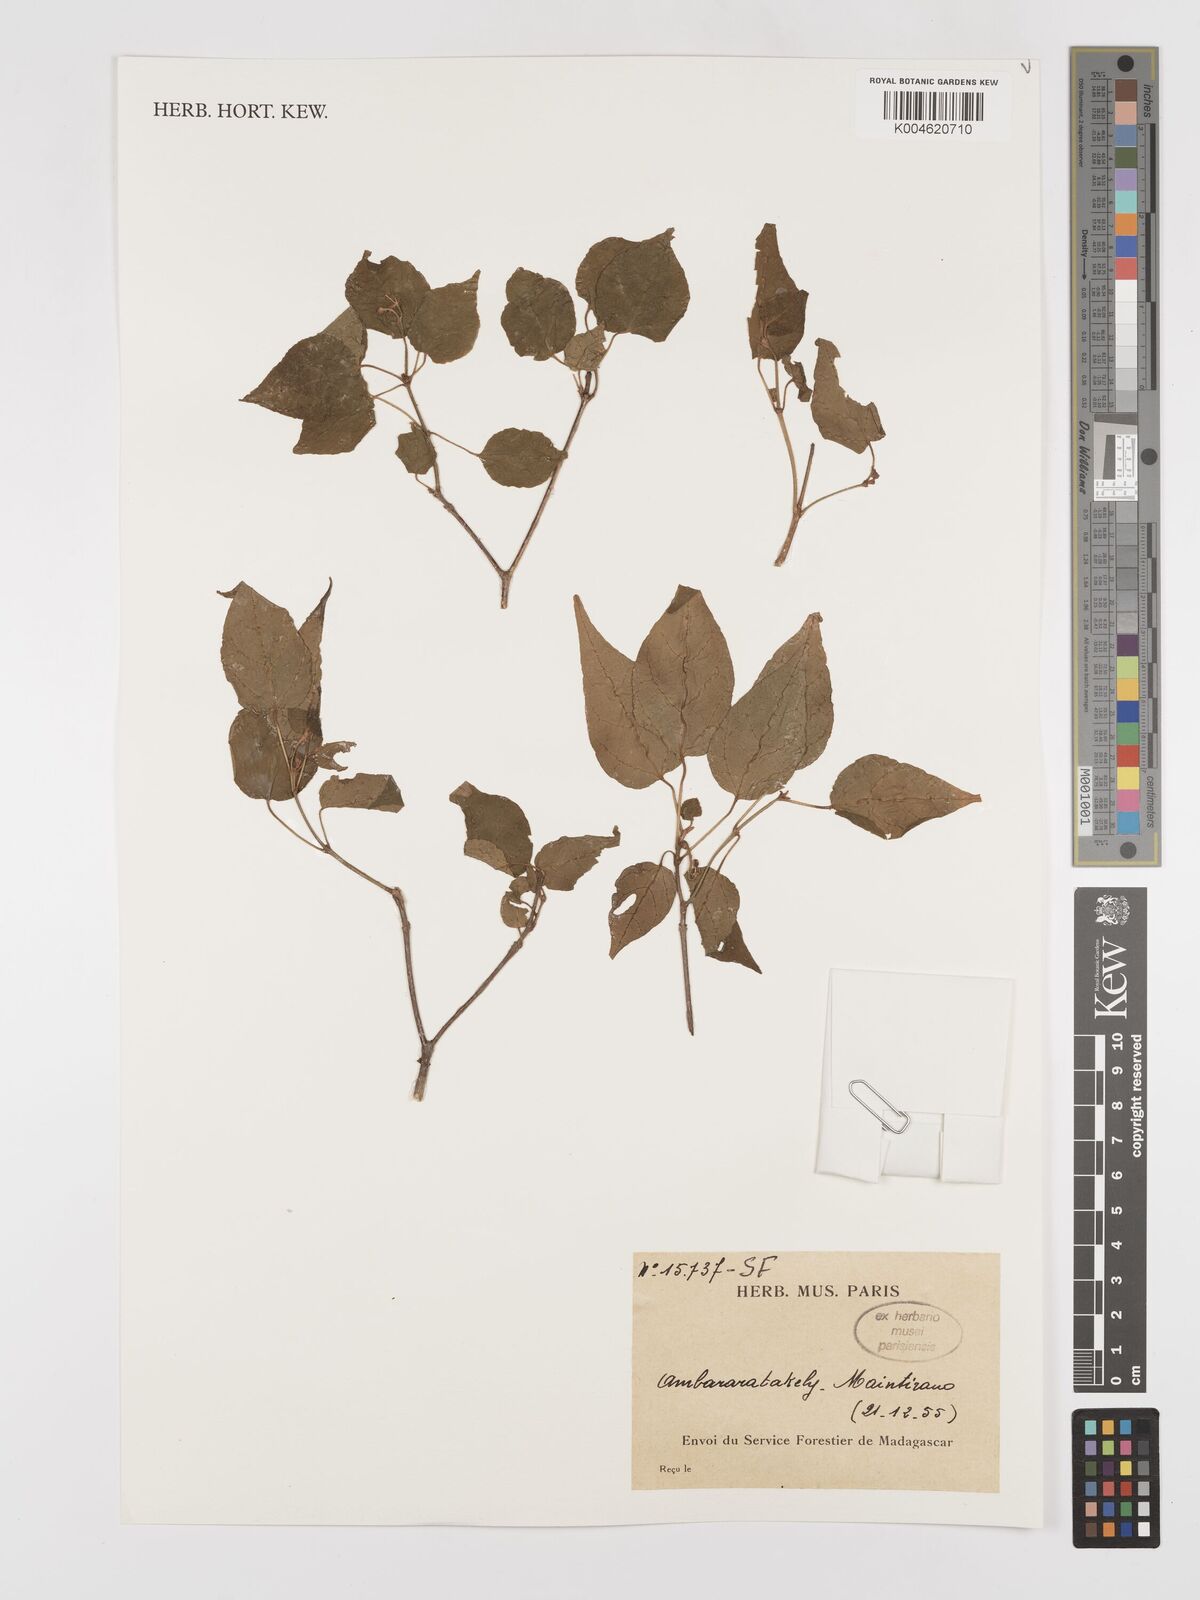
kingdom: Plantae
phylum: Tracheophyta
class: Magnoliopsida
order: Malpighiales
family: Euphorbiaceae
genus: Croton
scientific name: Croton
